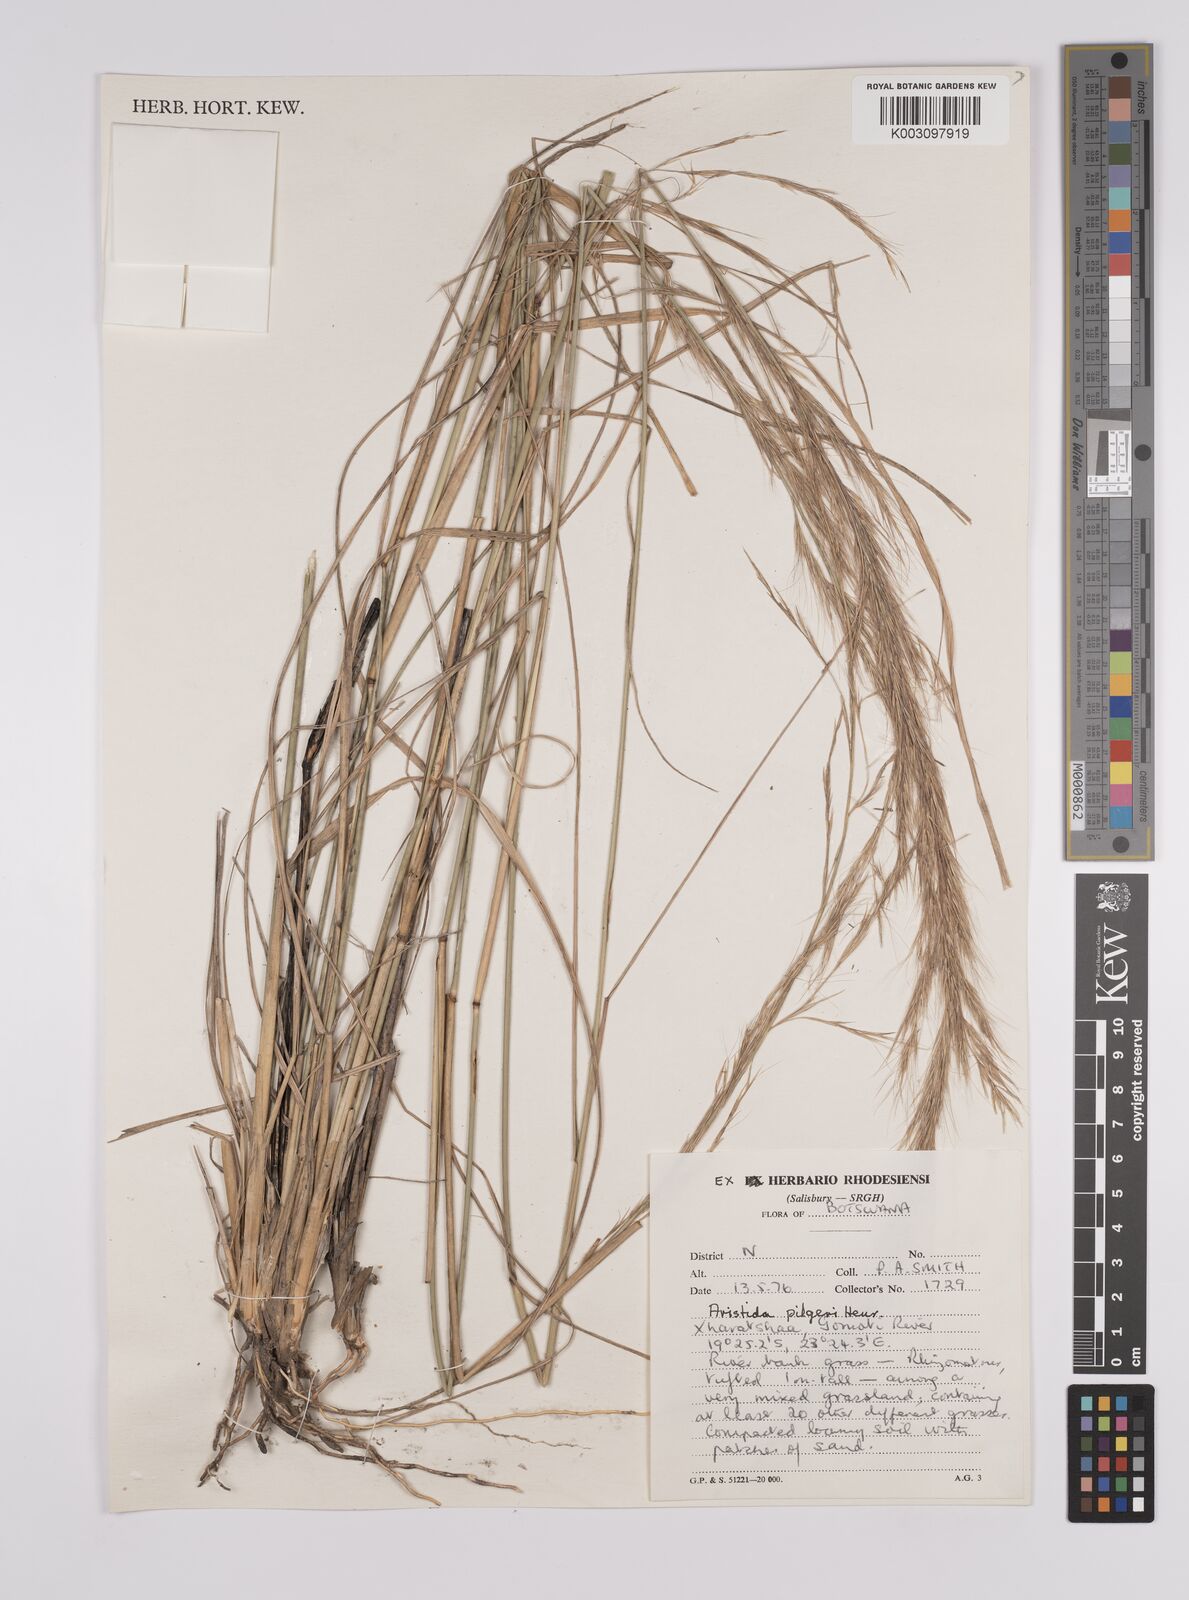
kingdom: Plantae
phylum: Tracheophyta
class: Liliopsida
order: Poales
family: Poaceae
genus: Aristida
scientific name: Aristida pilgeri
